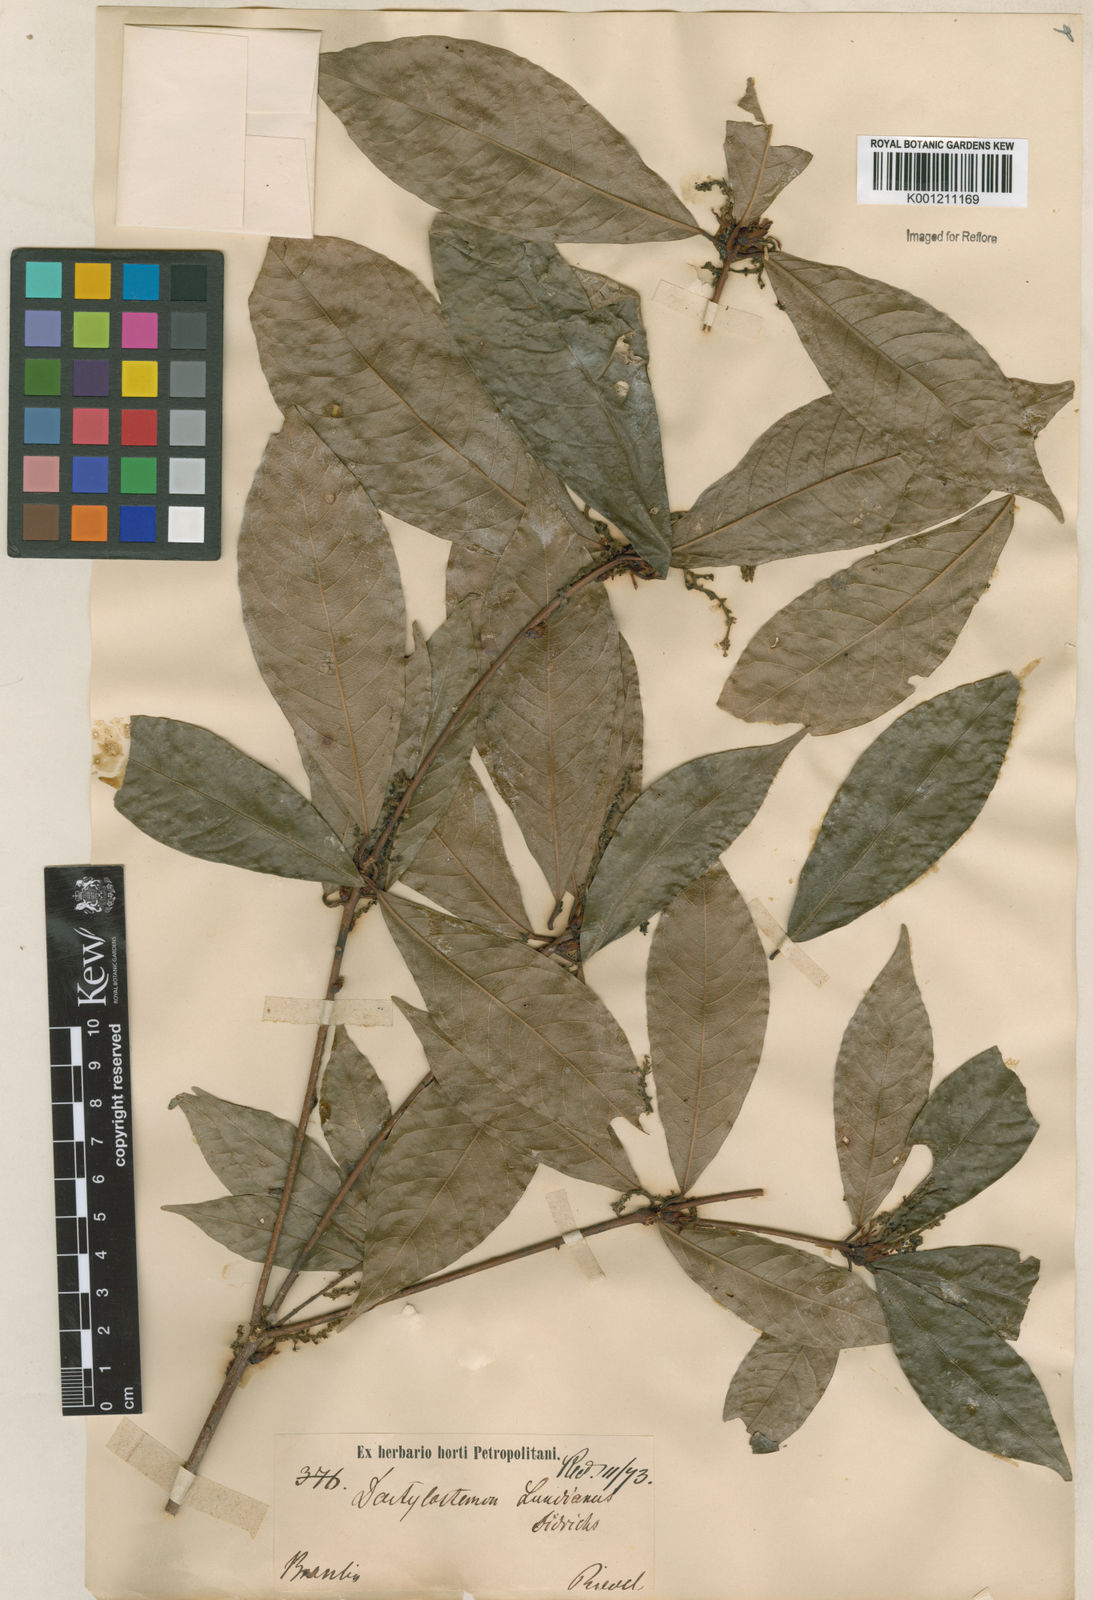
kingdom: Plantae
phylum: Tracheophyta
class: Magnoliopsida
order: Malpighiales
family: Euphorbiaceae
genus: Actinostemon
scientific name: Actinostemon klotzschii
